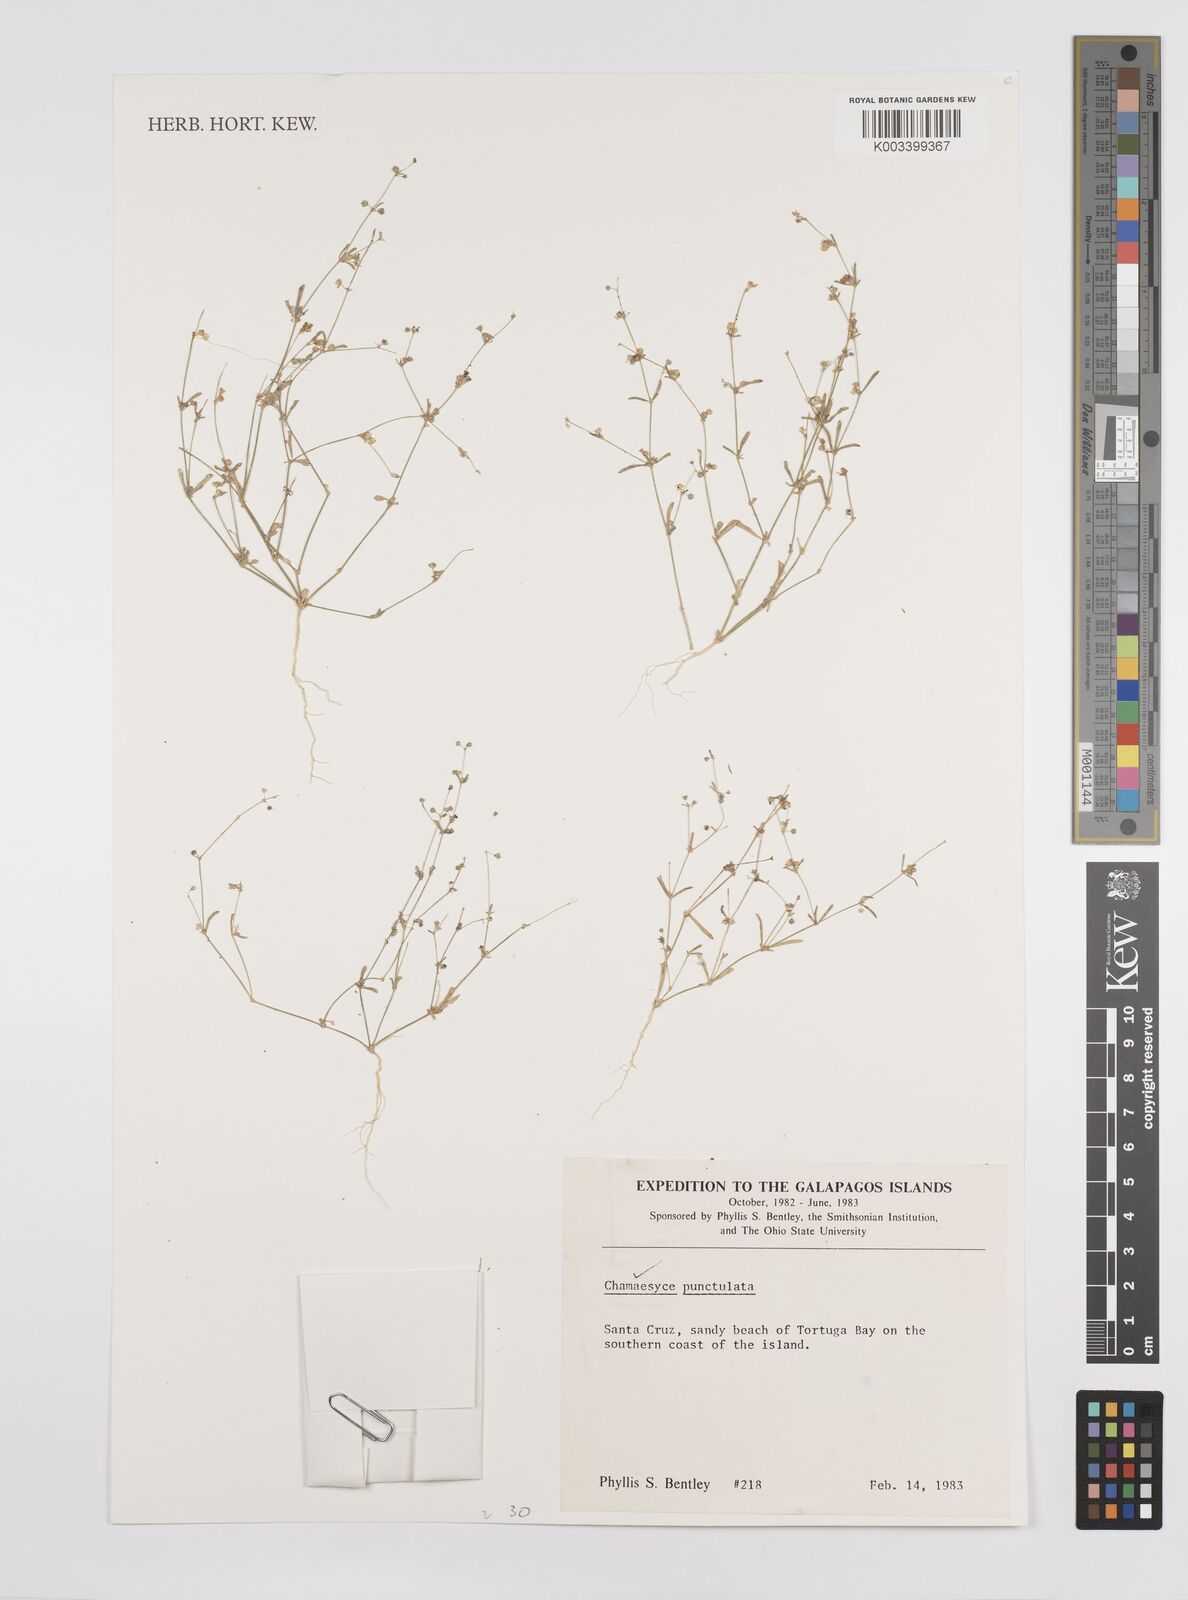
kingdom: Plantae
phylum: Tracheophyta
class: Magnoliopsida
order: Malpighiales
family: Euphorbiaceae
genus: Euphorbia
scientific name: Euphorbia punctulata
